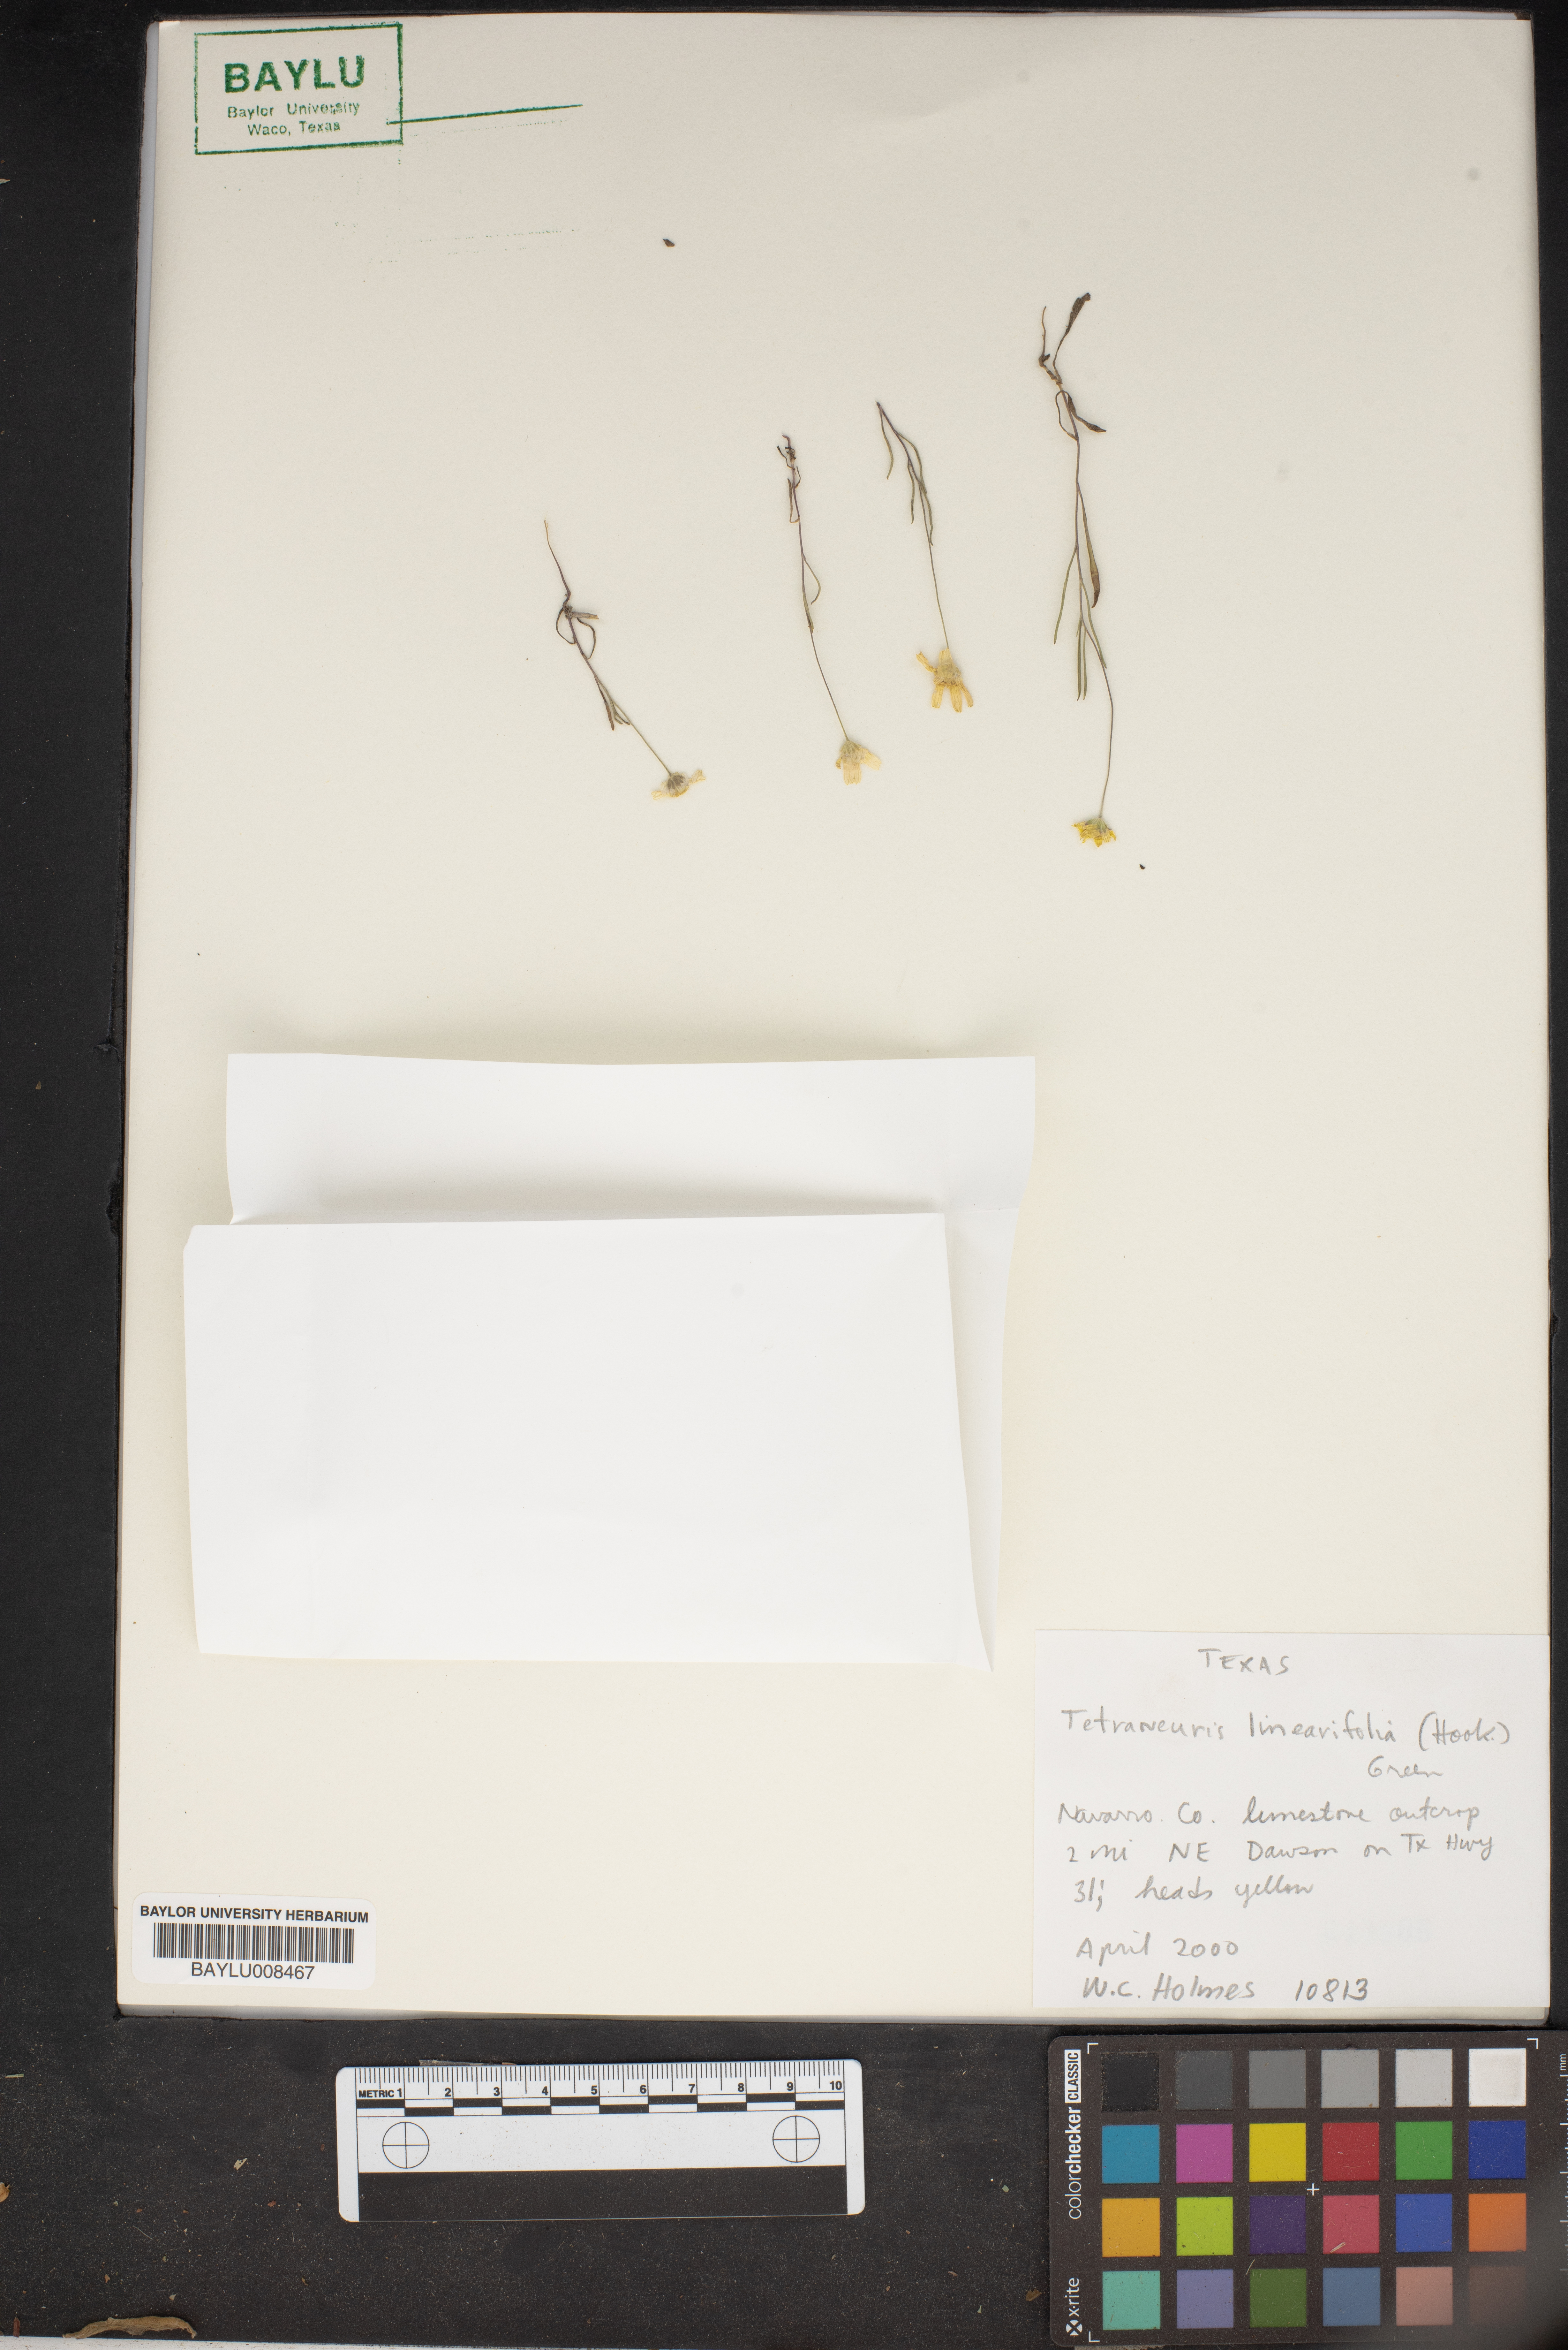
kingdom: Plantae
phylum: Tracheophyta
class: Magnoliopsida
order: Asterales
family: Asteraceae
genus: Tetraneuris
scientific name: Tetraneuris linearifolia
